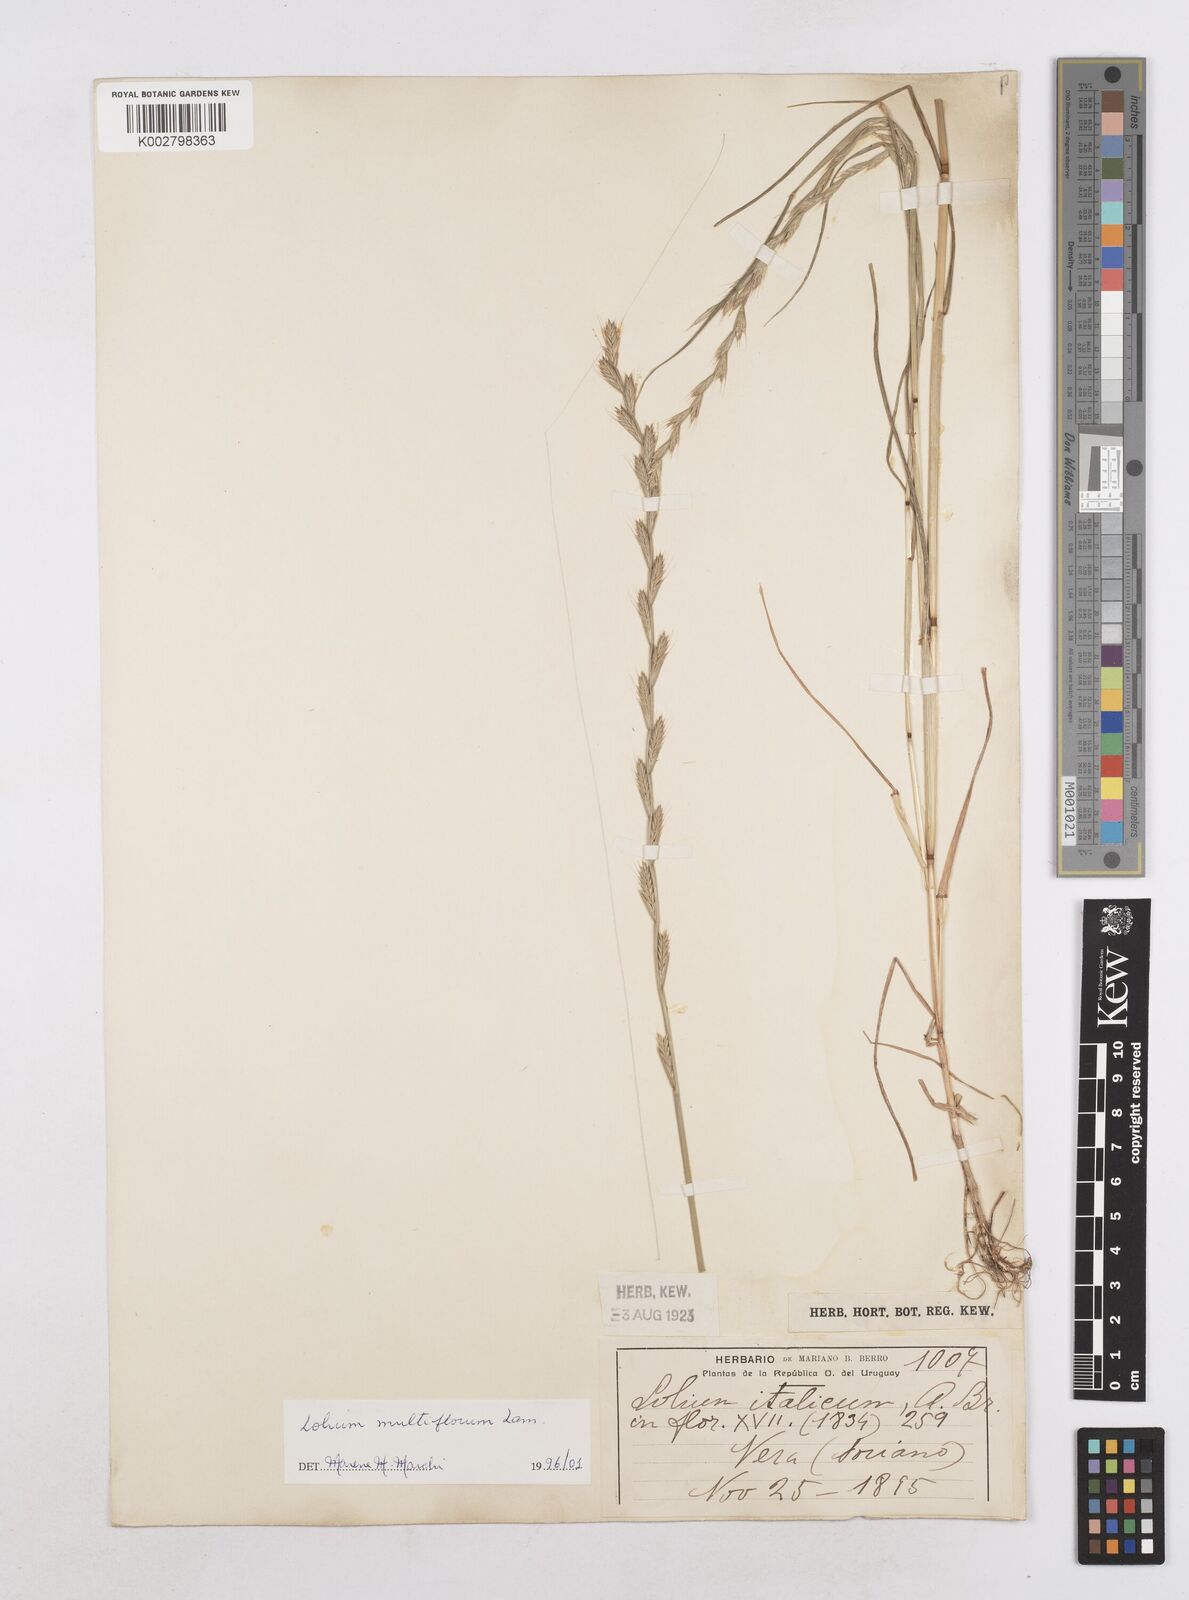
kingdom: Plantae
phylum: Tracheophyta
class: Liliopsida
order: Poales
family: Poaceae
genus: Lolium
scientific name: Lolium multiflorum
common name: Annual ryegrass
